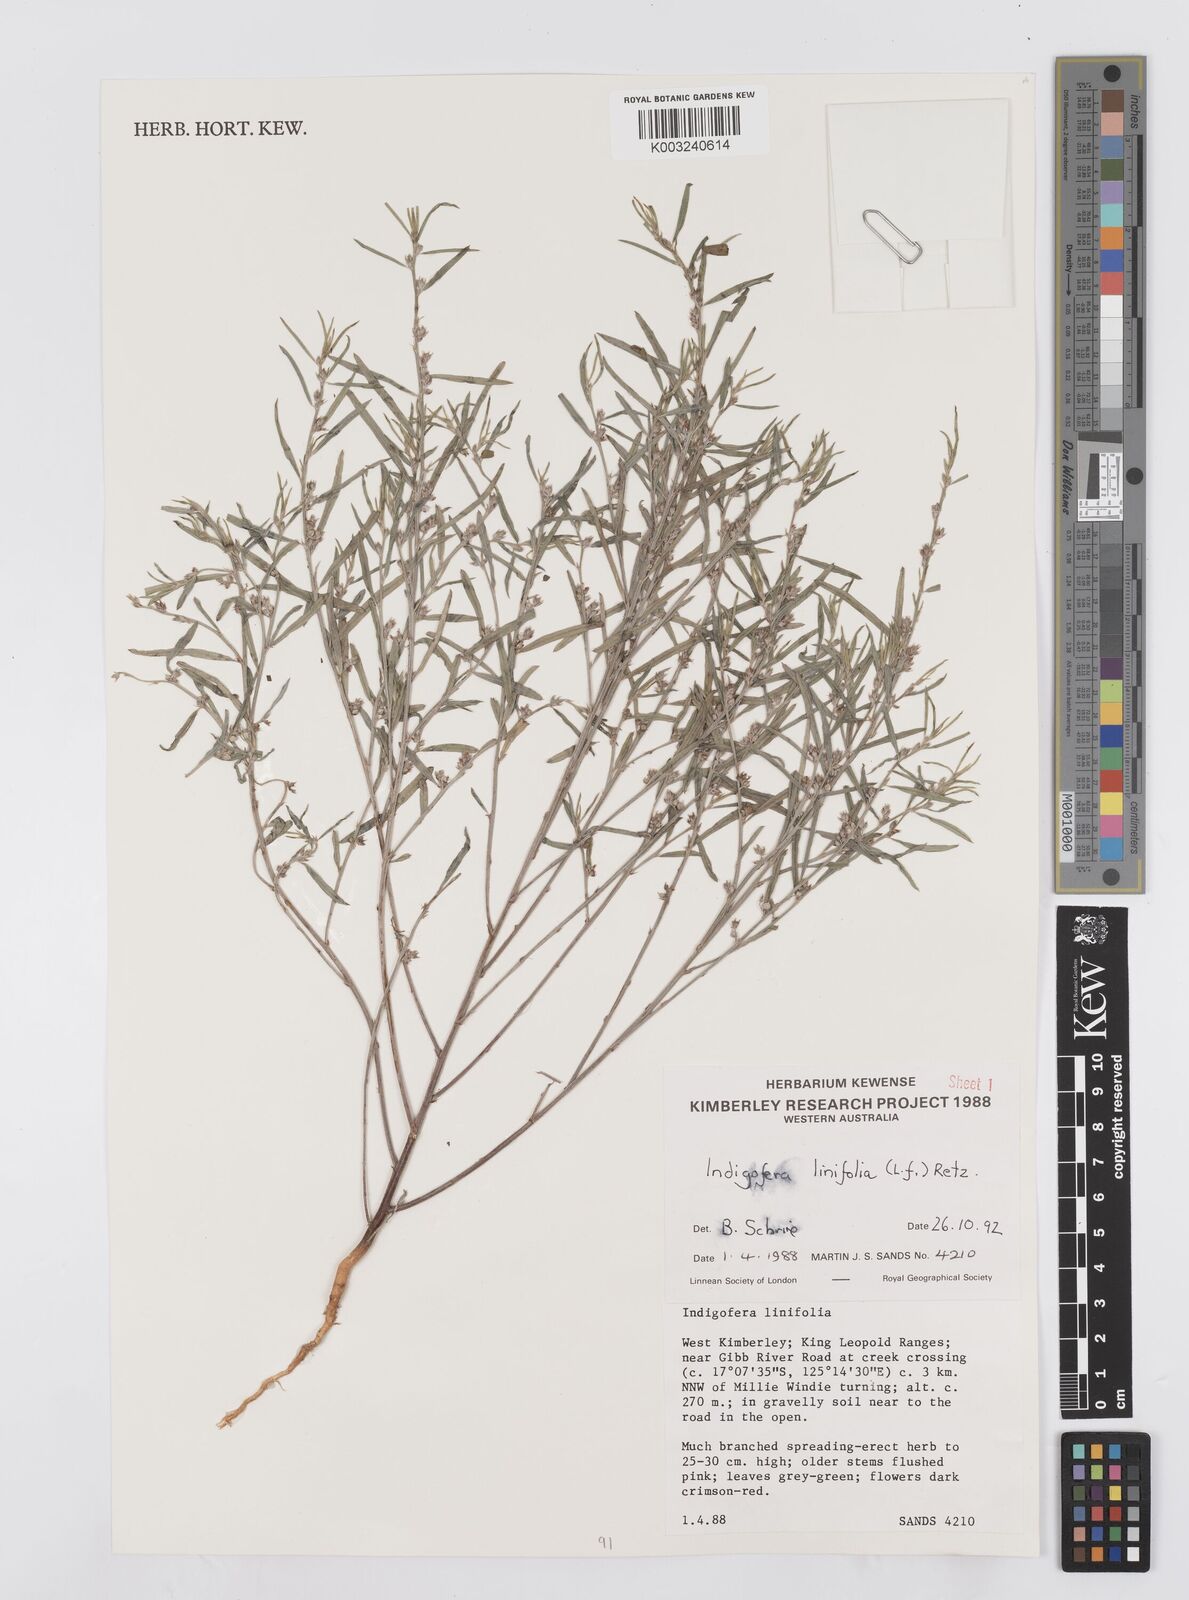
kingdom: Plantae
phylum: Tracheophyta
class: Magnoliopsida
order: Fabales
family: Fabaceae
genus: Indigofera
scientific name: Indigofera linifolia
